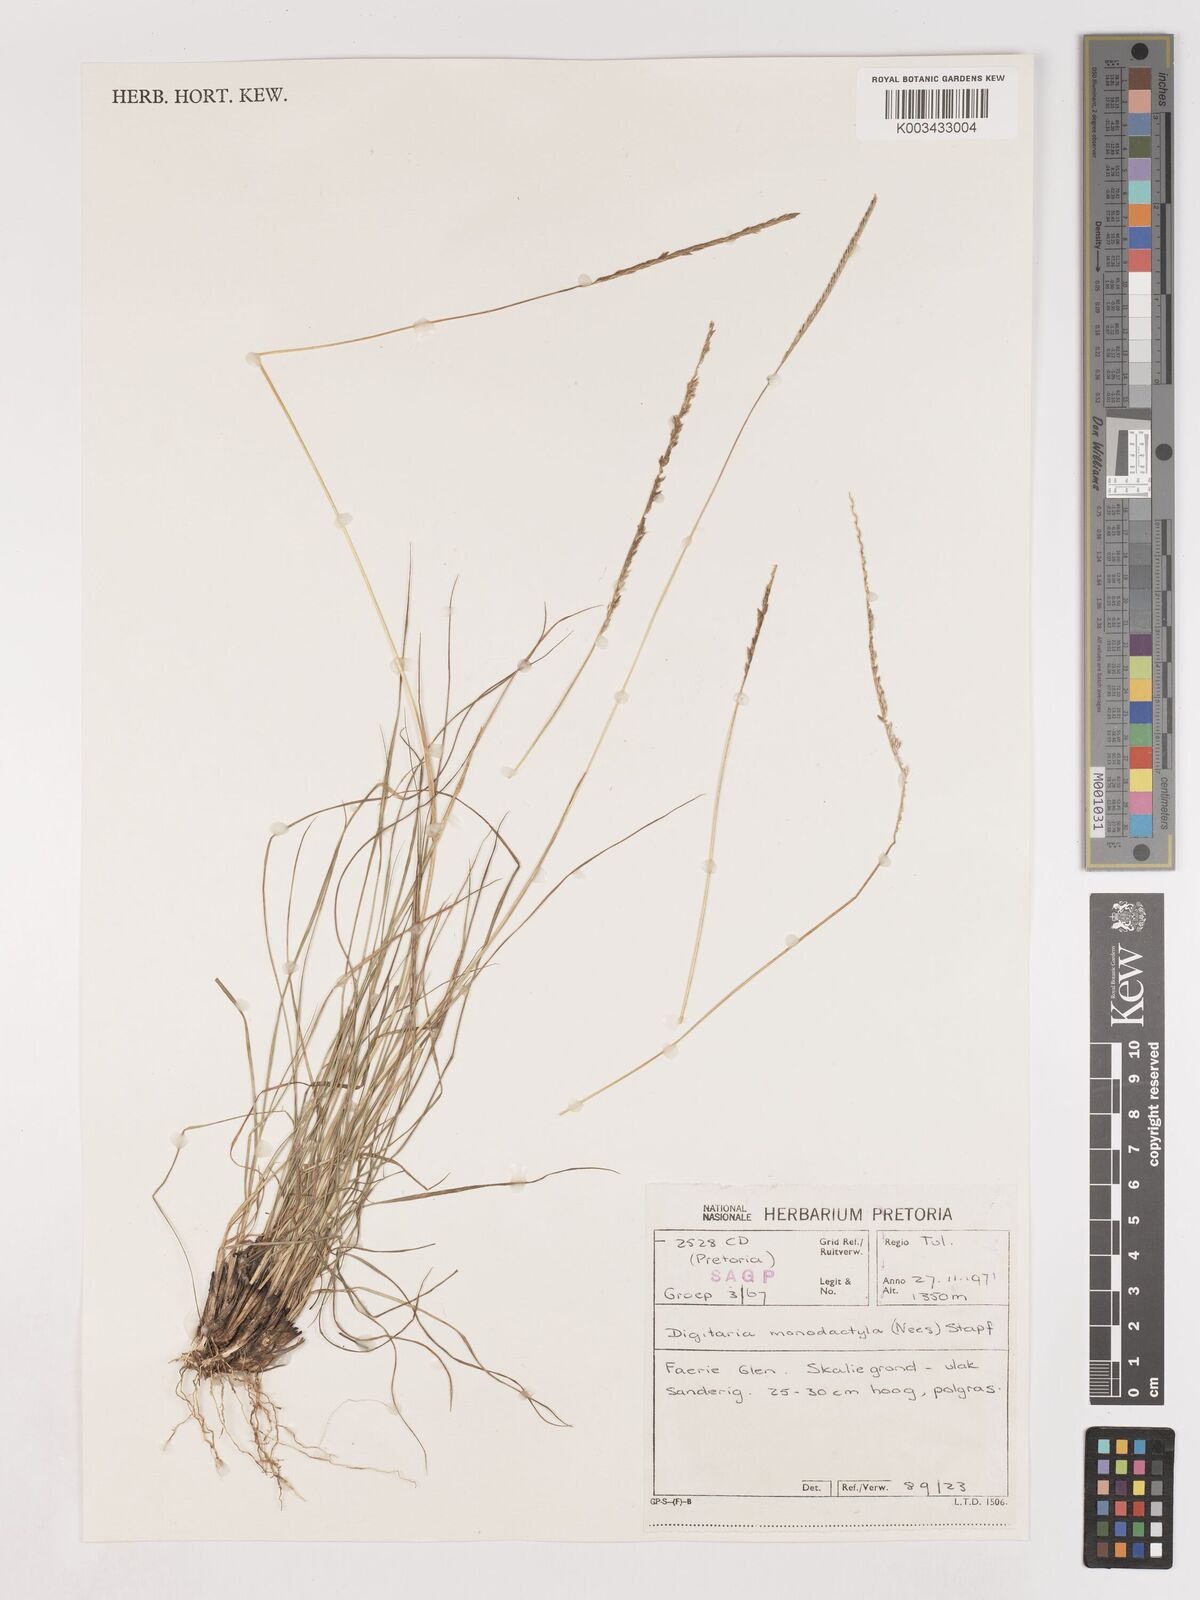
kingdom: Plantae
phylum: Tracheophyta
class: Liliopsida
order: Poales
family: Poaceae
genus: Digitaria
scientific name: Digitaria monodactyla
